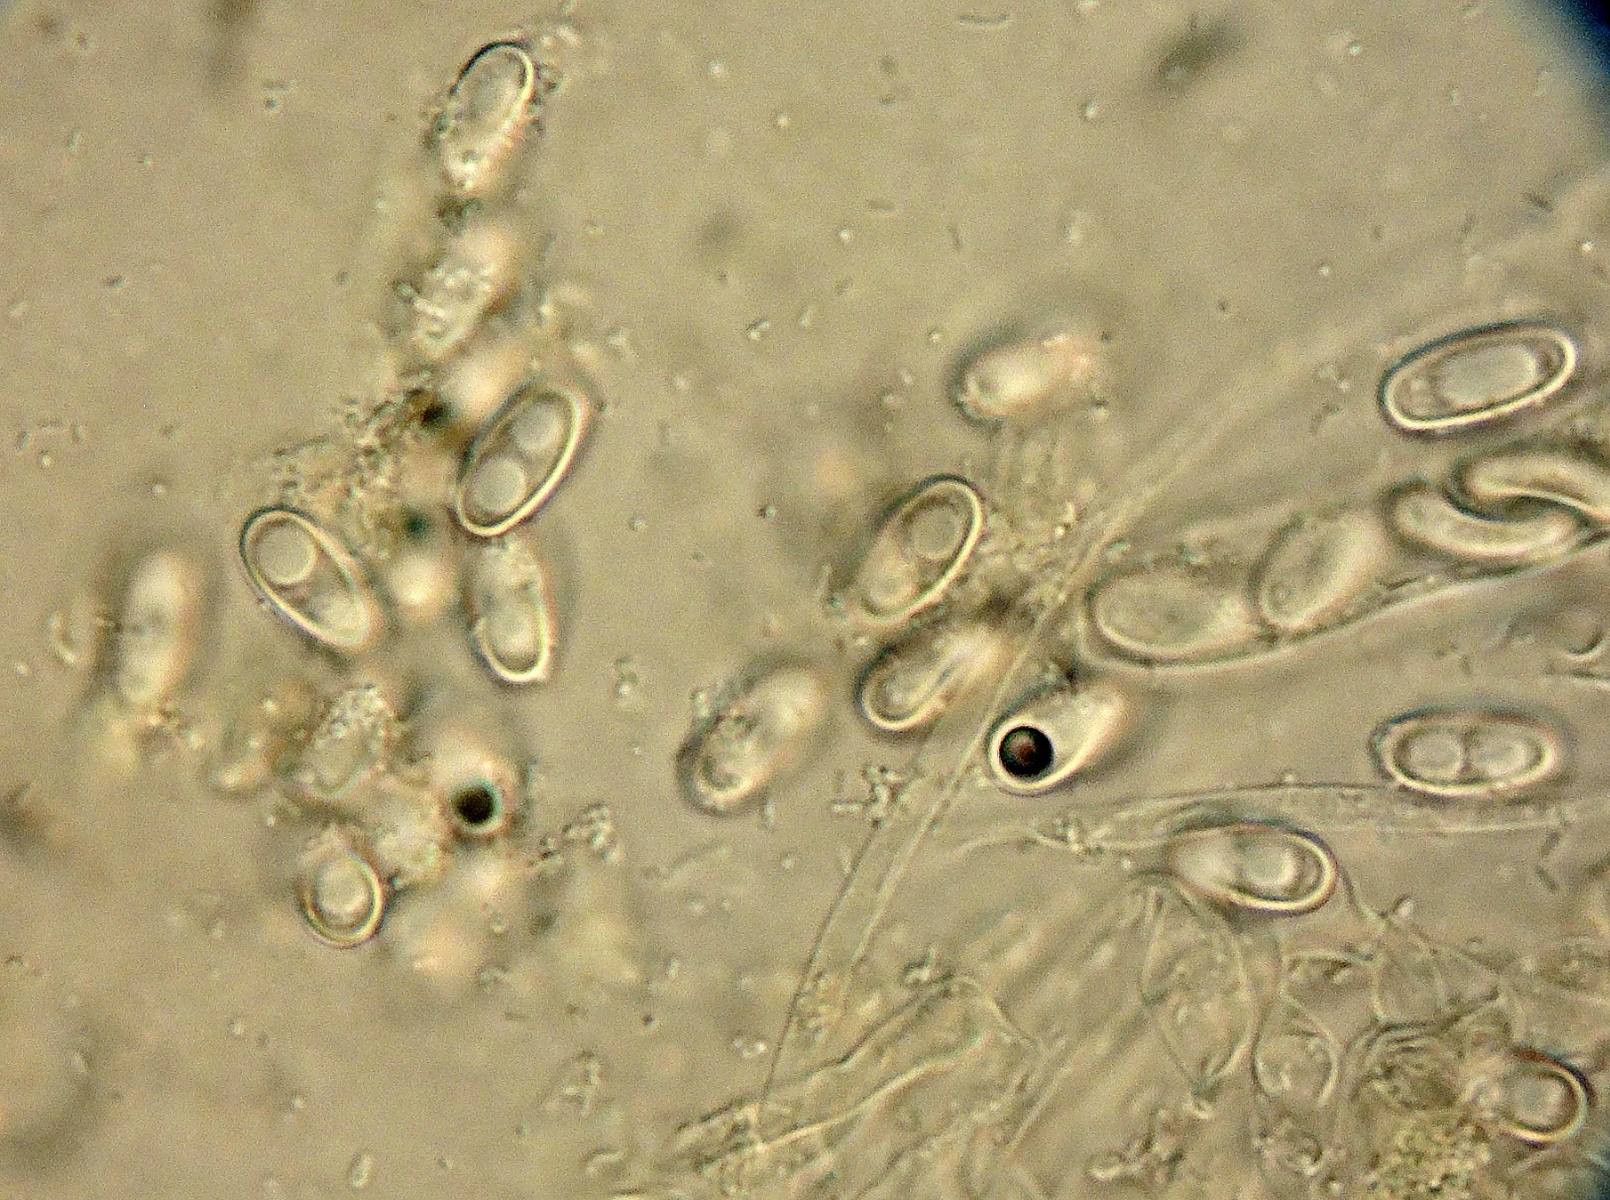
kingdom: Fungi
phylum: Ascomycota
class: Pezizomycetes
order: Pezizales
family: Pezizaceae
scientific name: Pezizaceae
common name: bægersvampfamilien
